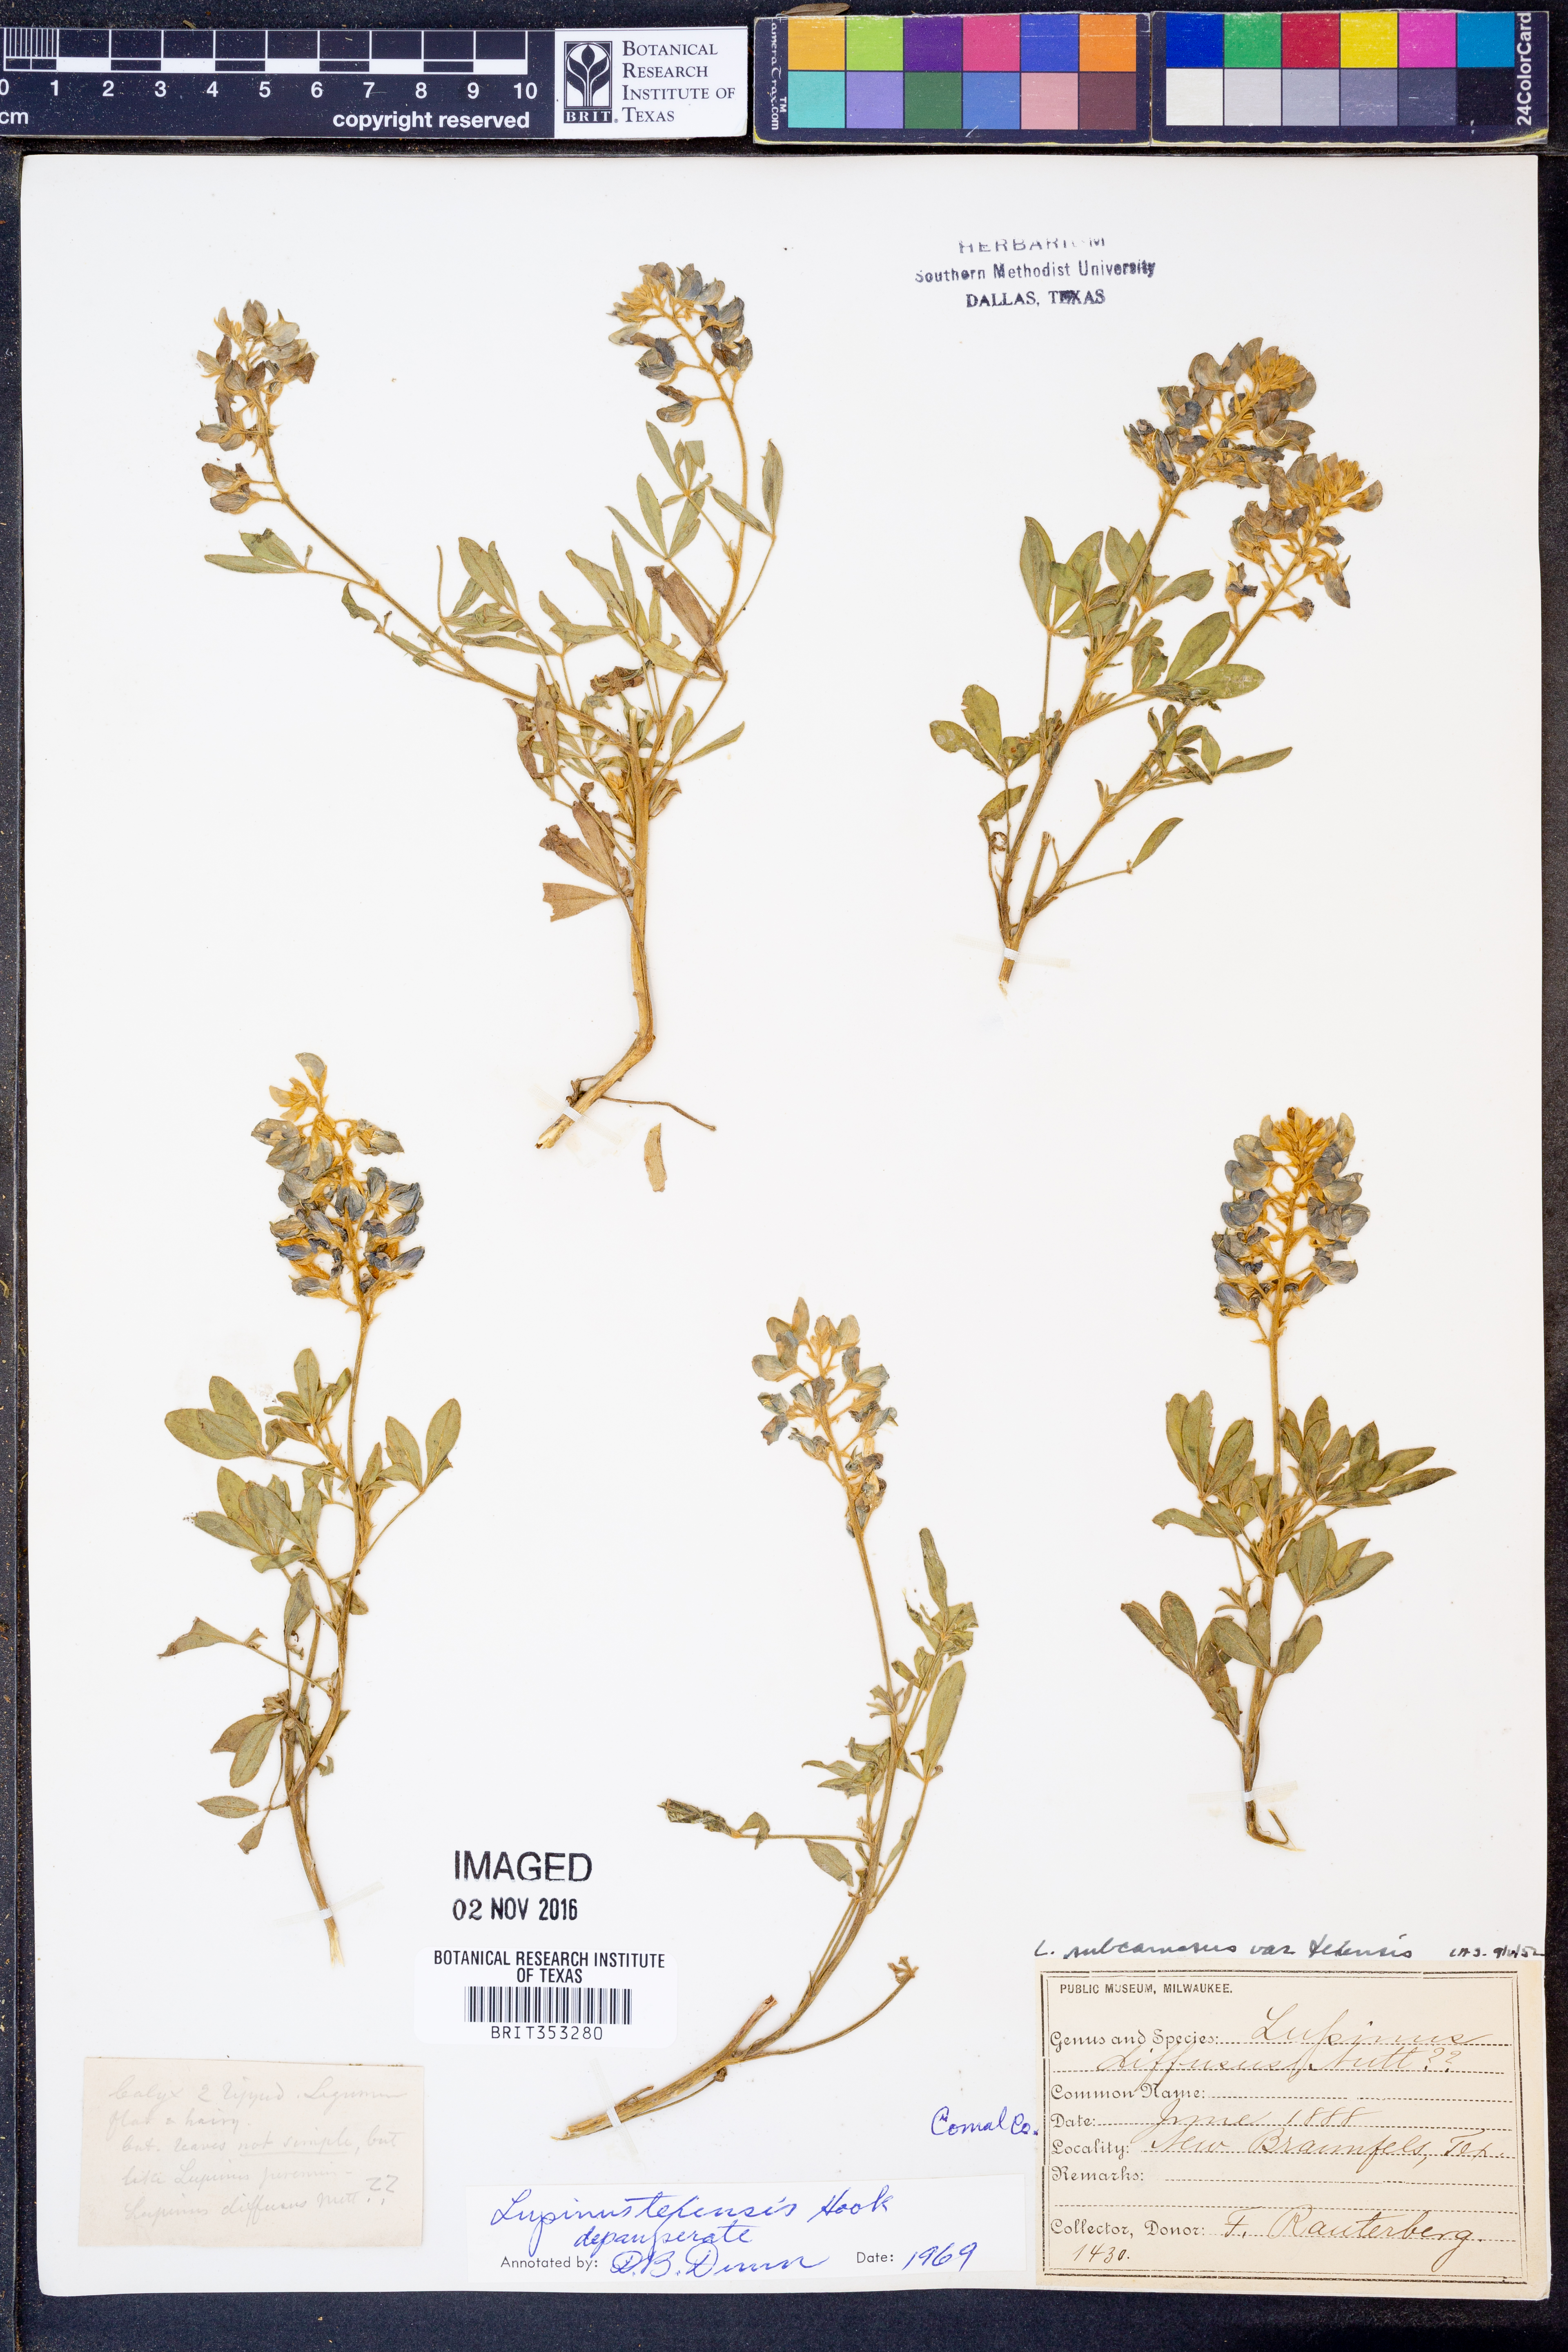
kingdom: Plantae
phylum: Tracheophyta
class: Magnoliopsida
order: Fabales
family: Fabaceae
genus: Lupinus
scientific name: Lupinus texensis
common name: Texas bluebonnet
